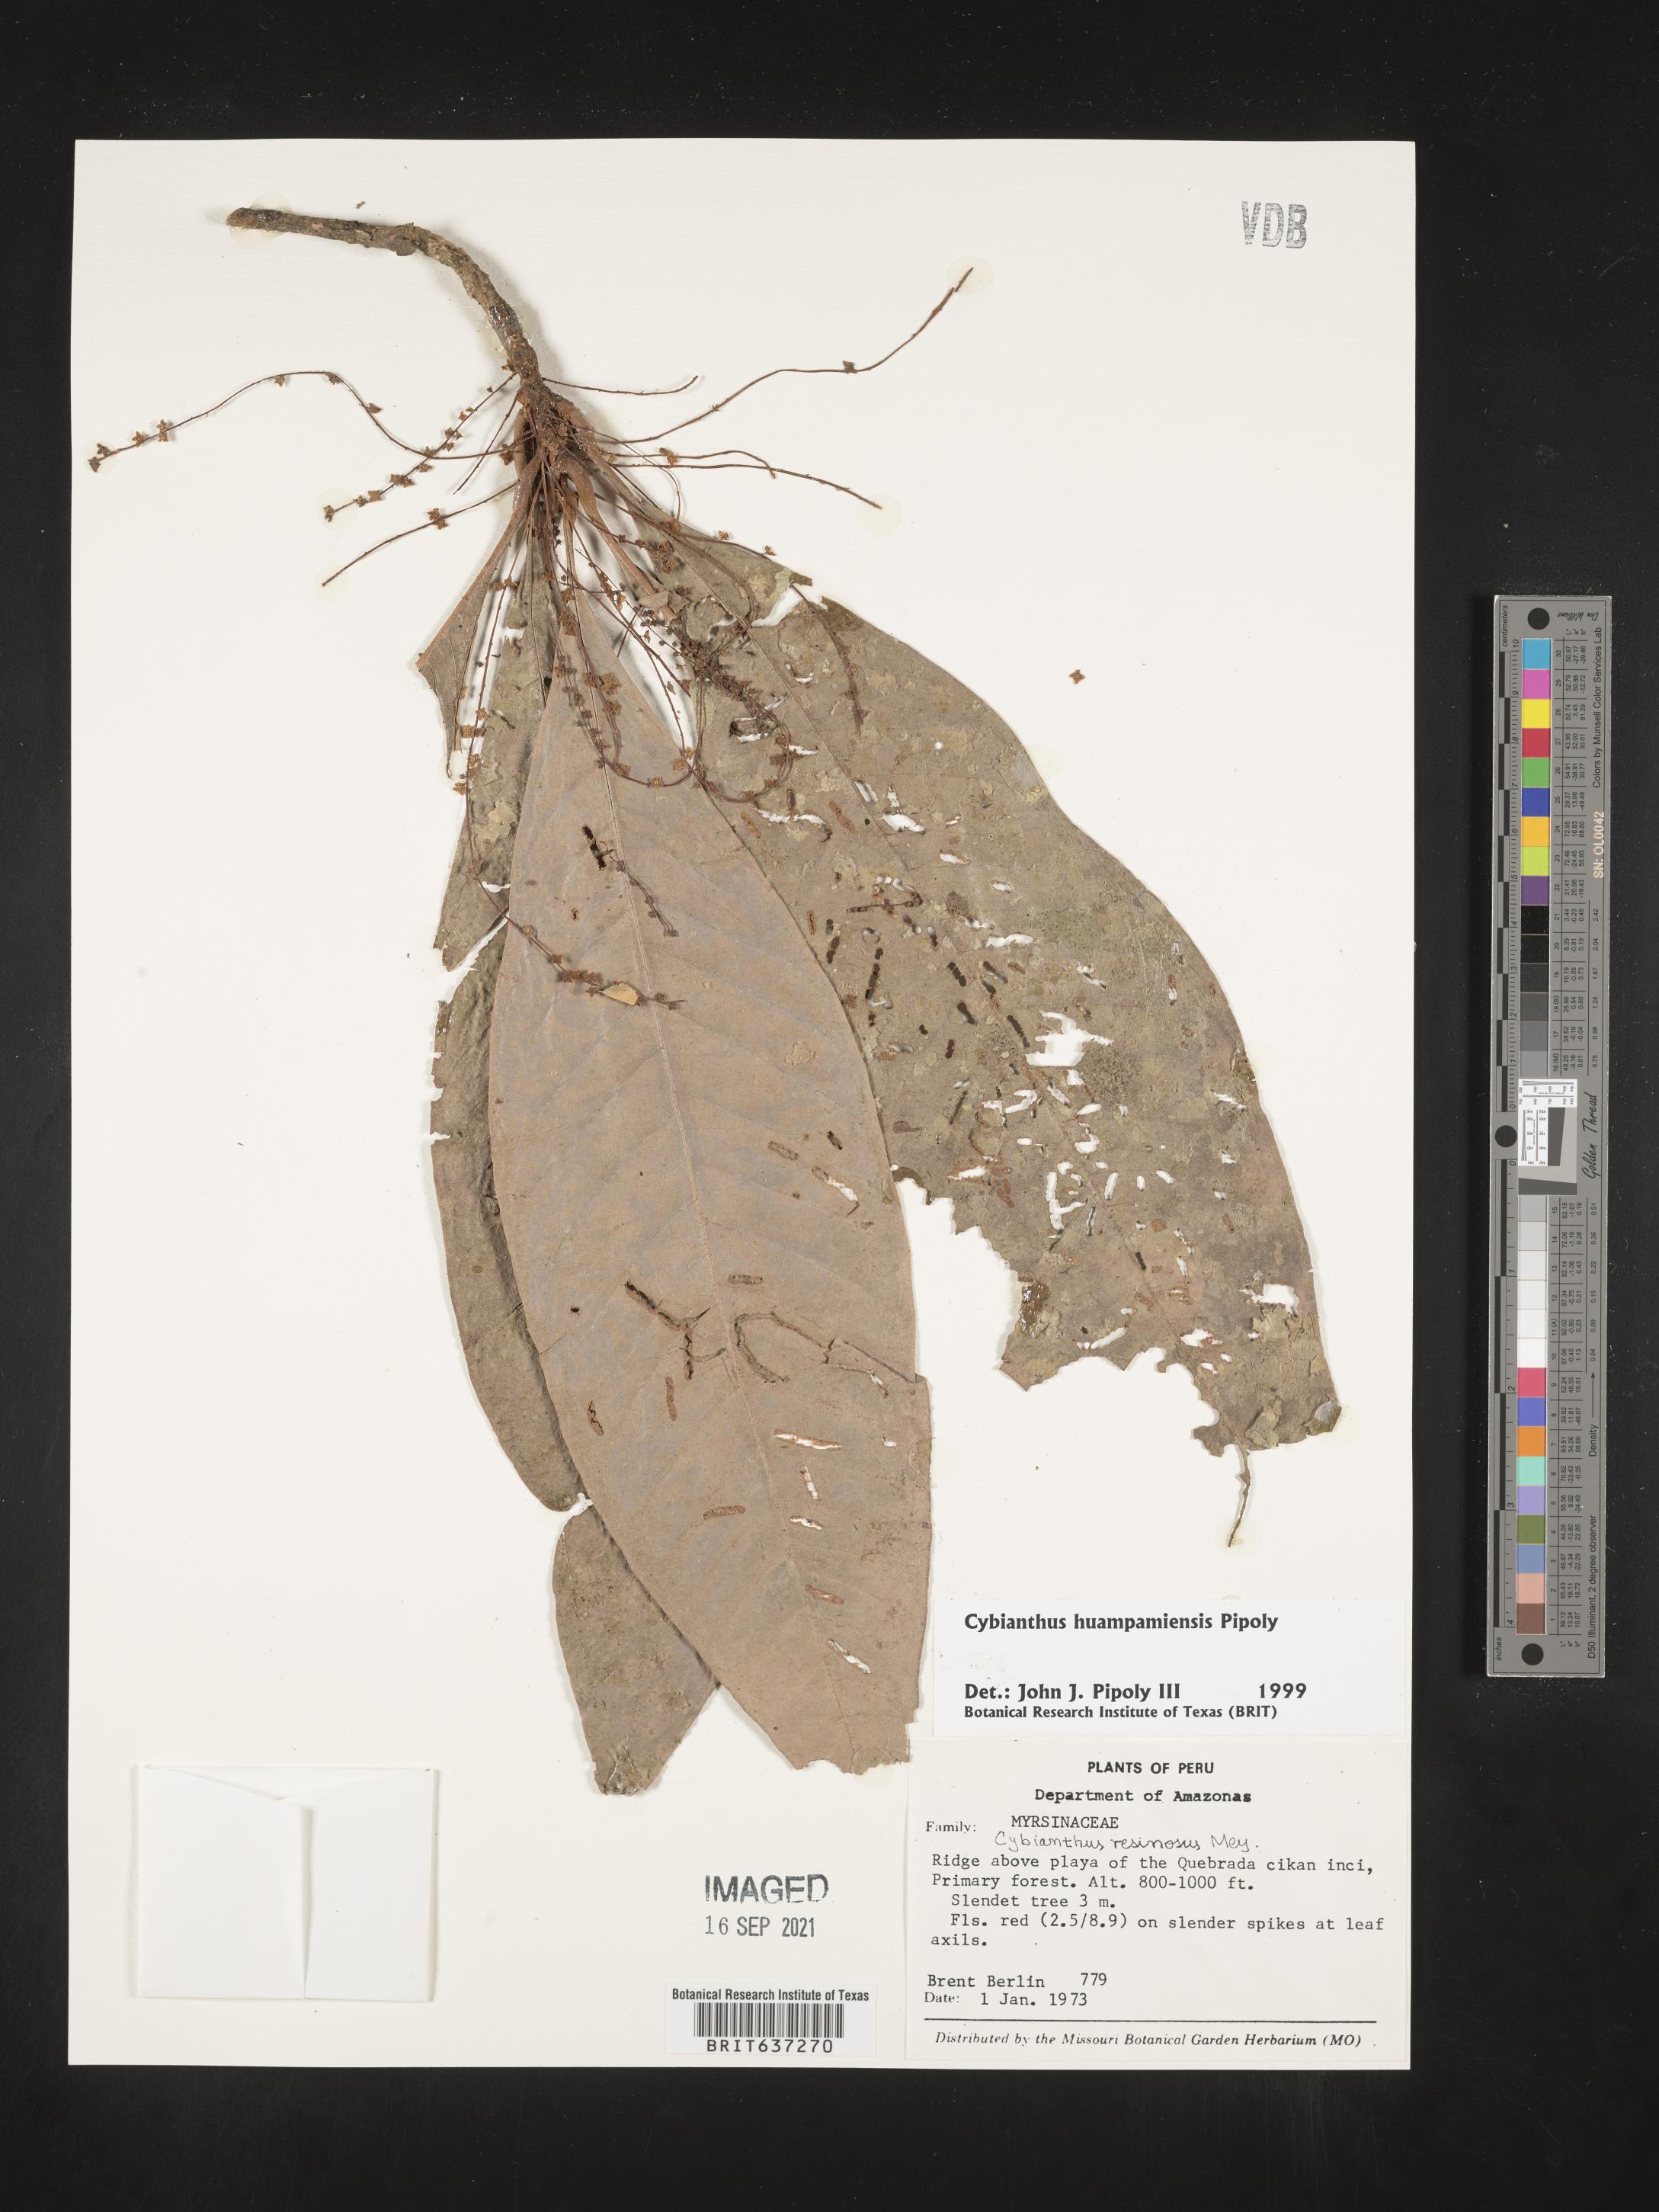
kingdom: Plantae
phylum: Tracheophyta
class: Magnoliopsida
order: Ericales
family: Primulaceae
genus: Cybianthus
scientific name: Cybianthus
